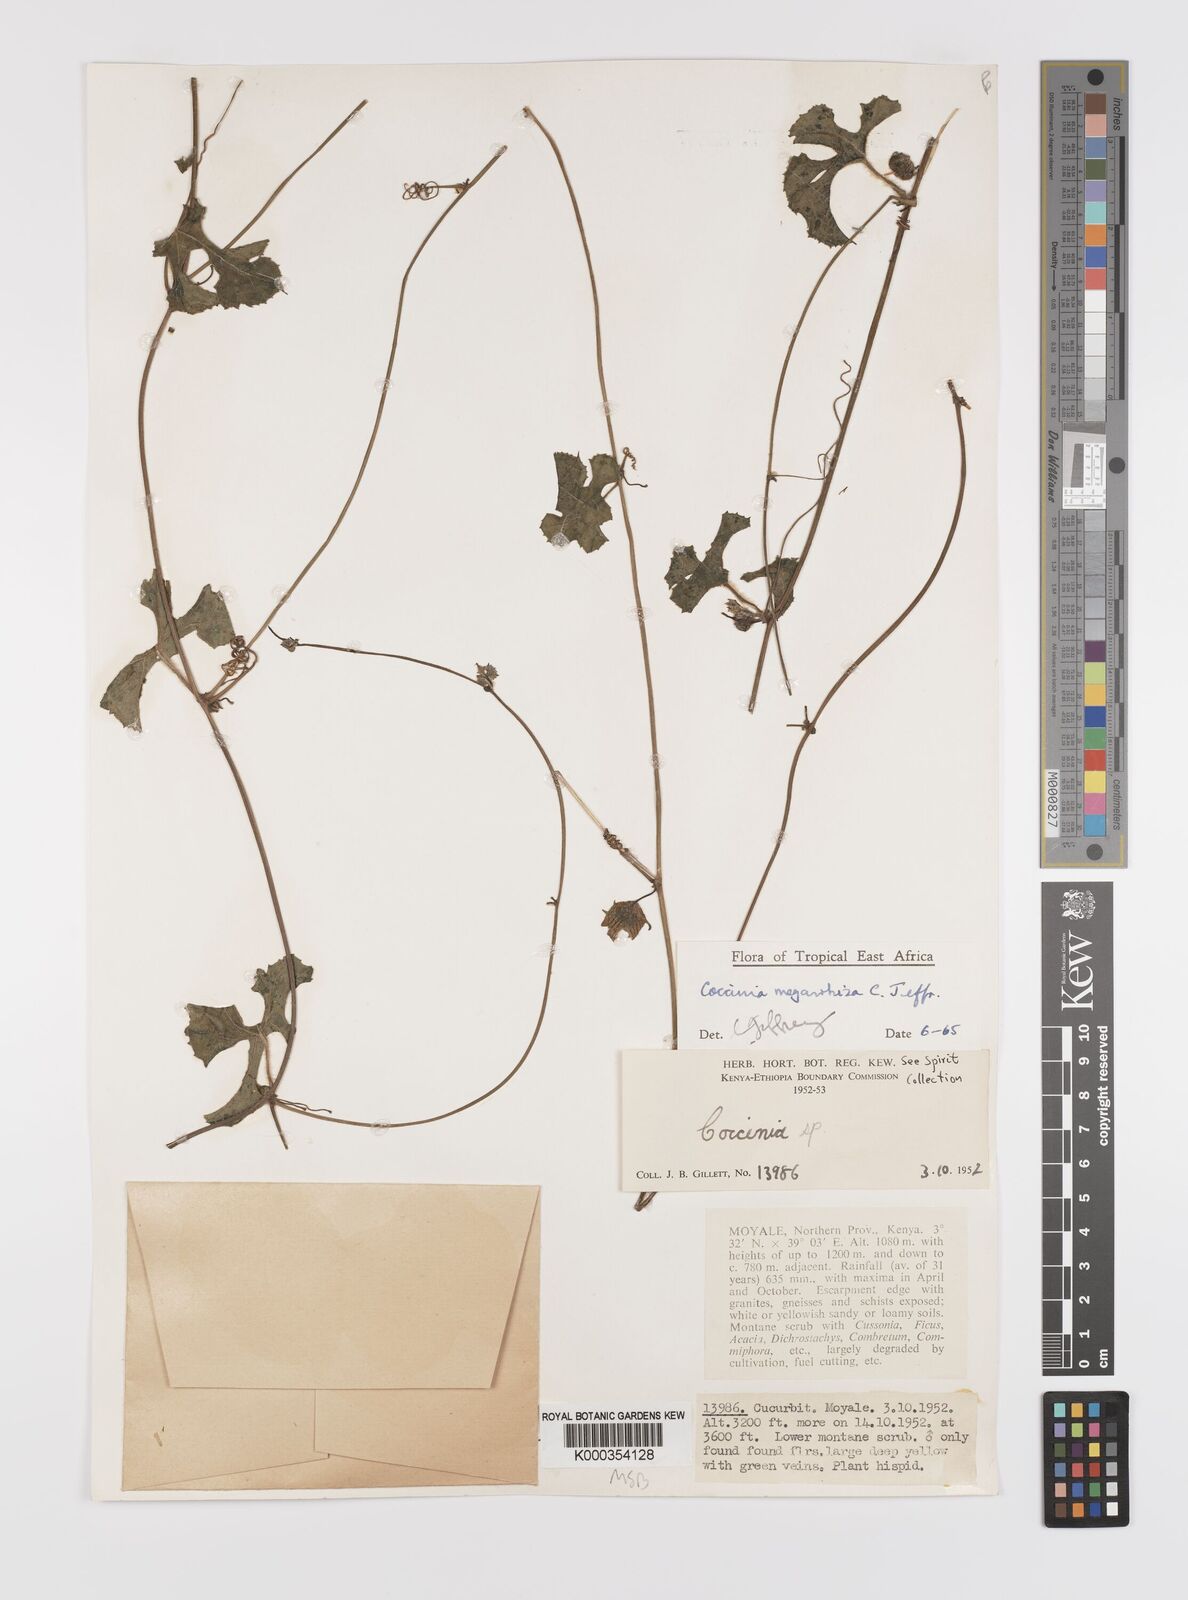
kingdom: Plantae
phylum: Tracheophyta
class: Magnoliopsida
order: Cucurbitales
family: Cucurbitaceae
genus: Coccinia
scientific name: Coccinia megarrhiza
